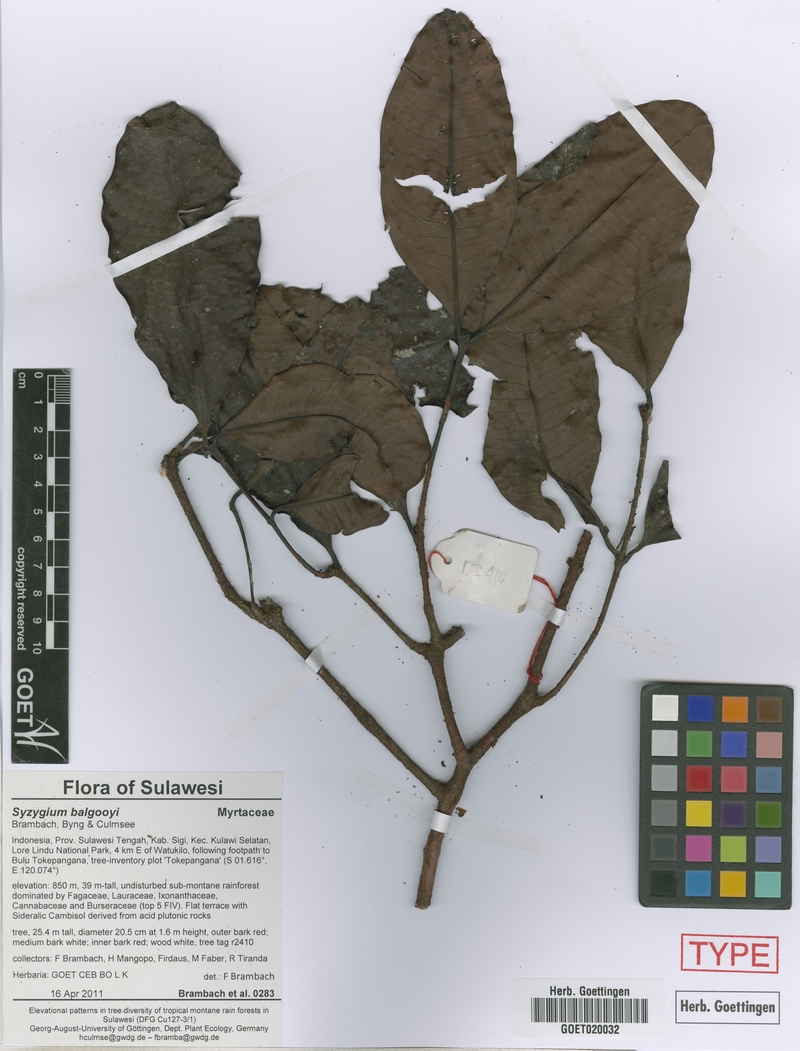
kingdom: Plantae
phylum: Tracheophyta
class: Magnoliopsida
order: Myrtales
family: Myrtaceae
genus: Syzygium
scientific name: Syzygium balgooyi
